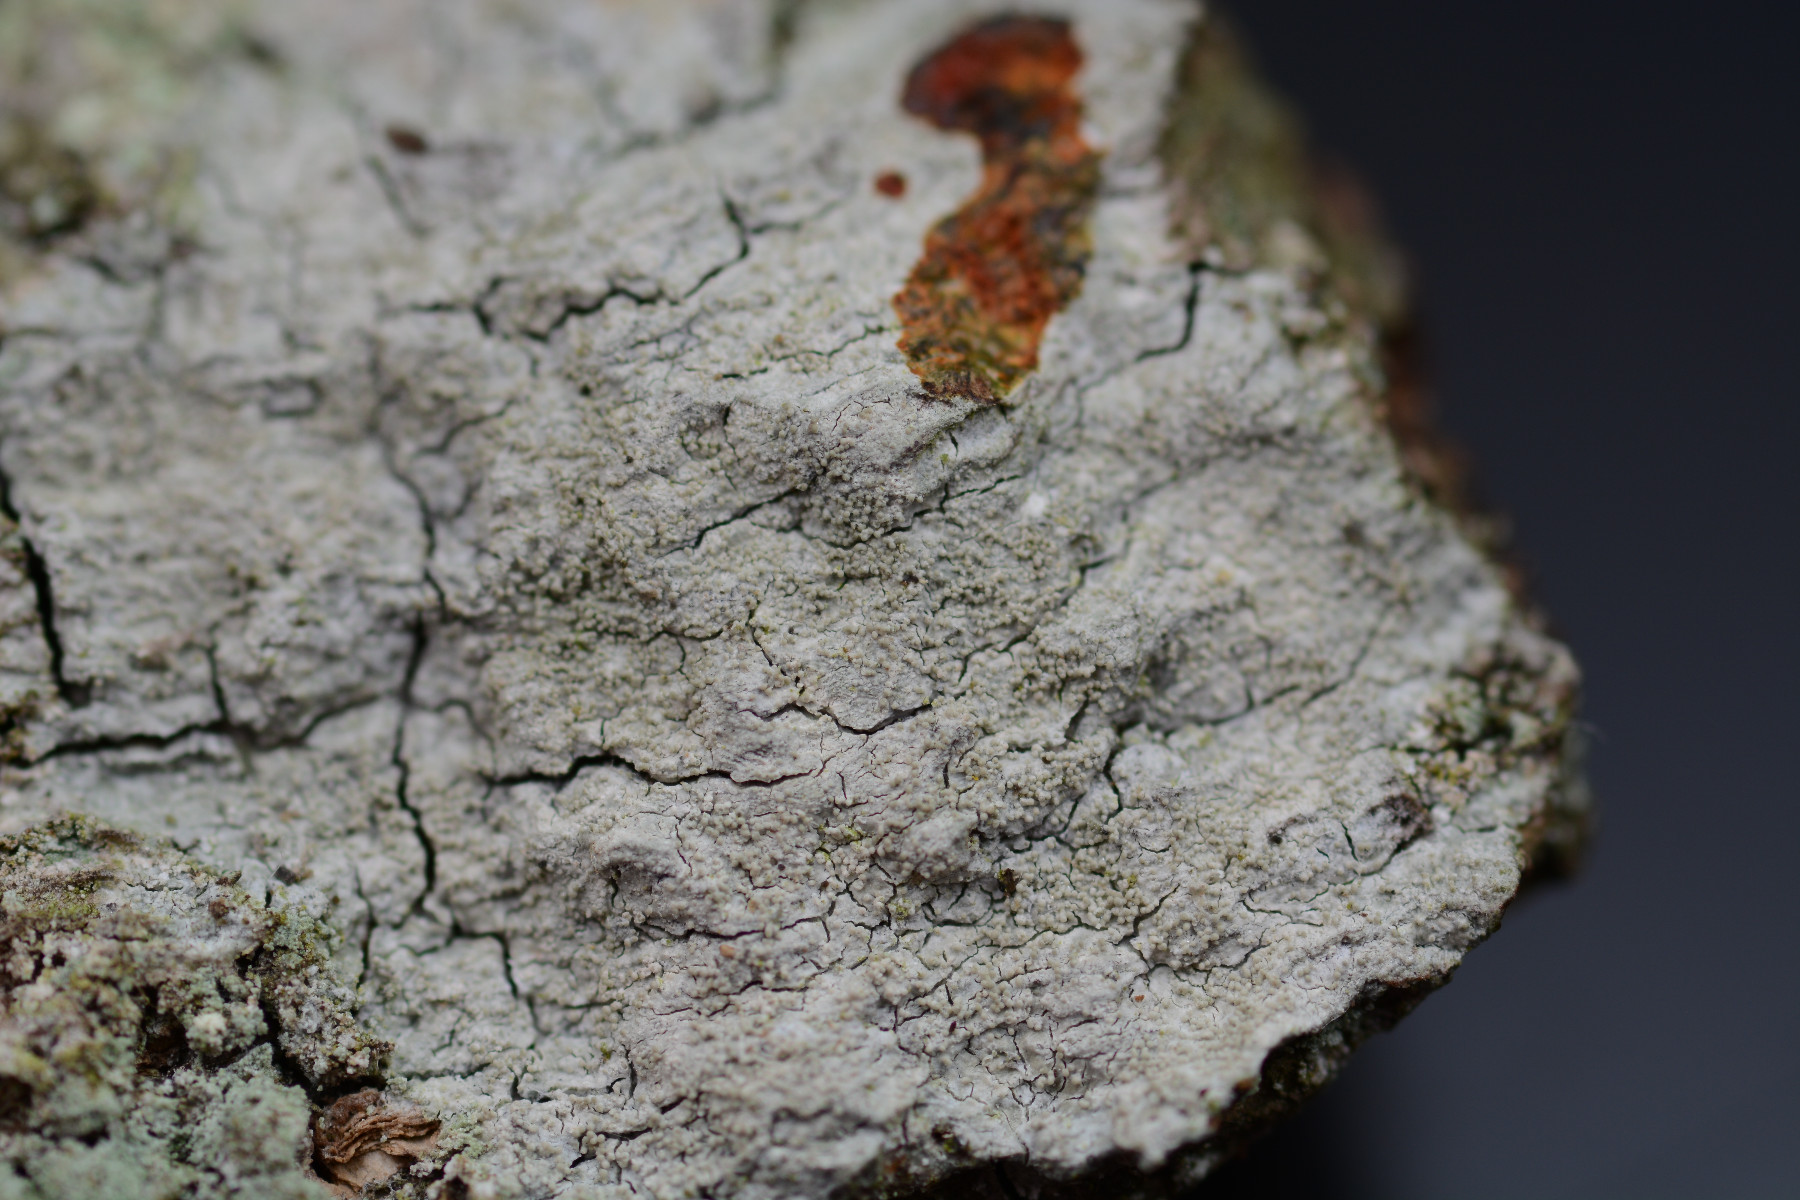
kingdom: Fungi
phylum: Ascomycota
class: Lecanoromycetes
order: Pertusariales
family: Pertusariaceae
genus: Pertusaria
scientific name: Pertusaria coccodes
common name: skurvet prikvortelav
